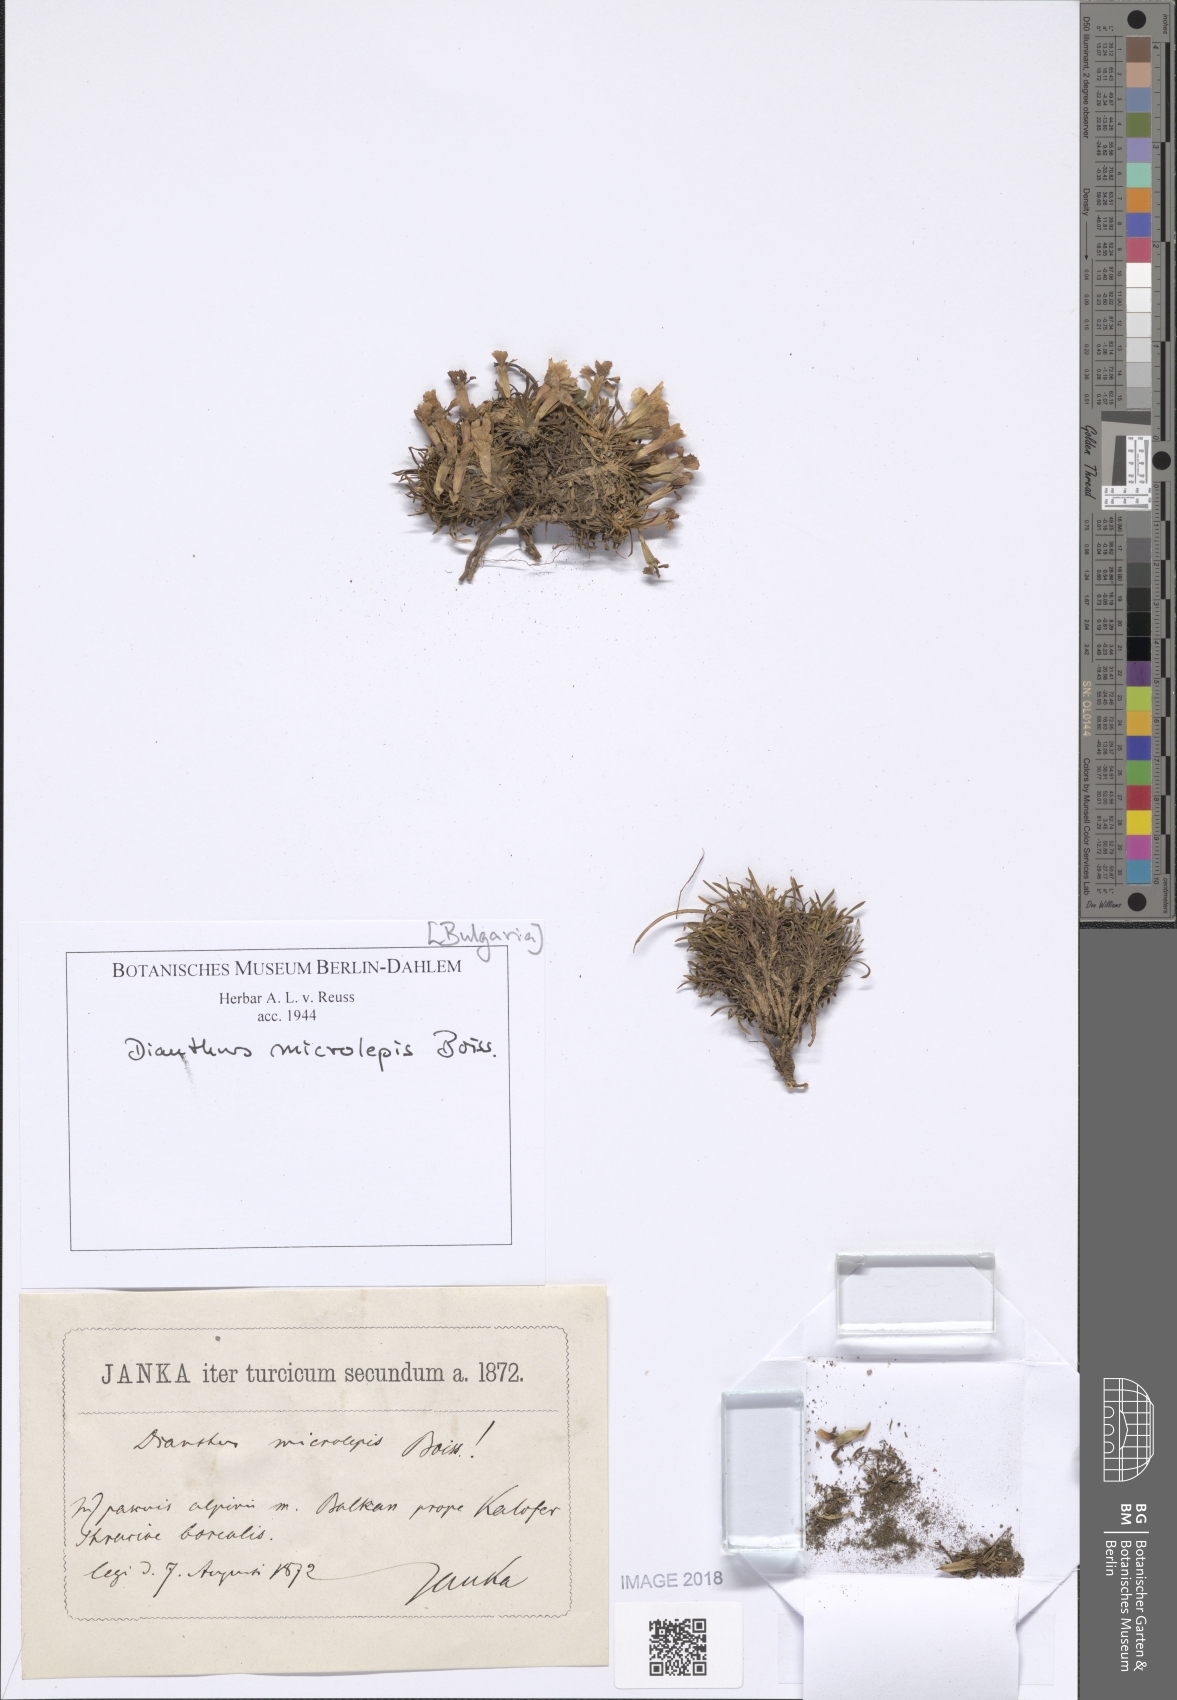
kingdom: Plantae
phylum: Tracheophyta
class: Magnoliopsida
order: Caryophyllales
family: Caryophyllaceae
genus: Dianthus
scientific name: Dianthus microlepis
